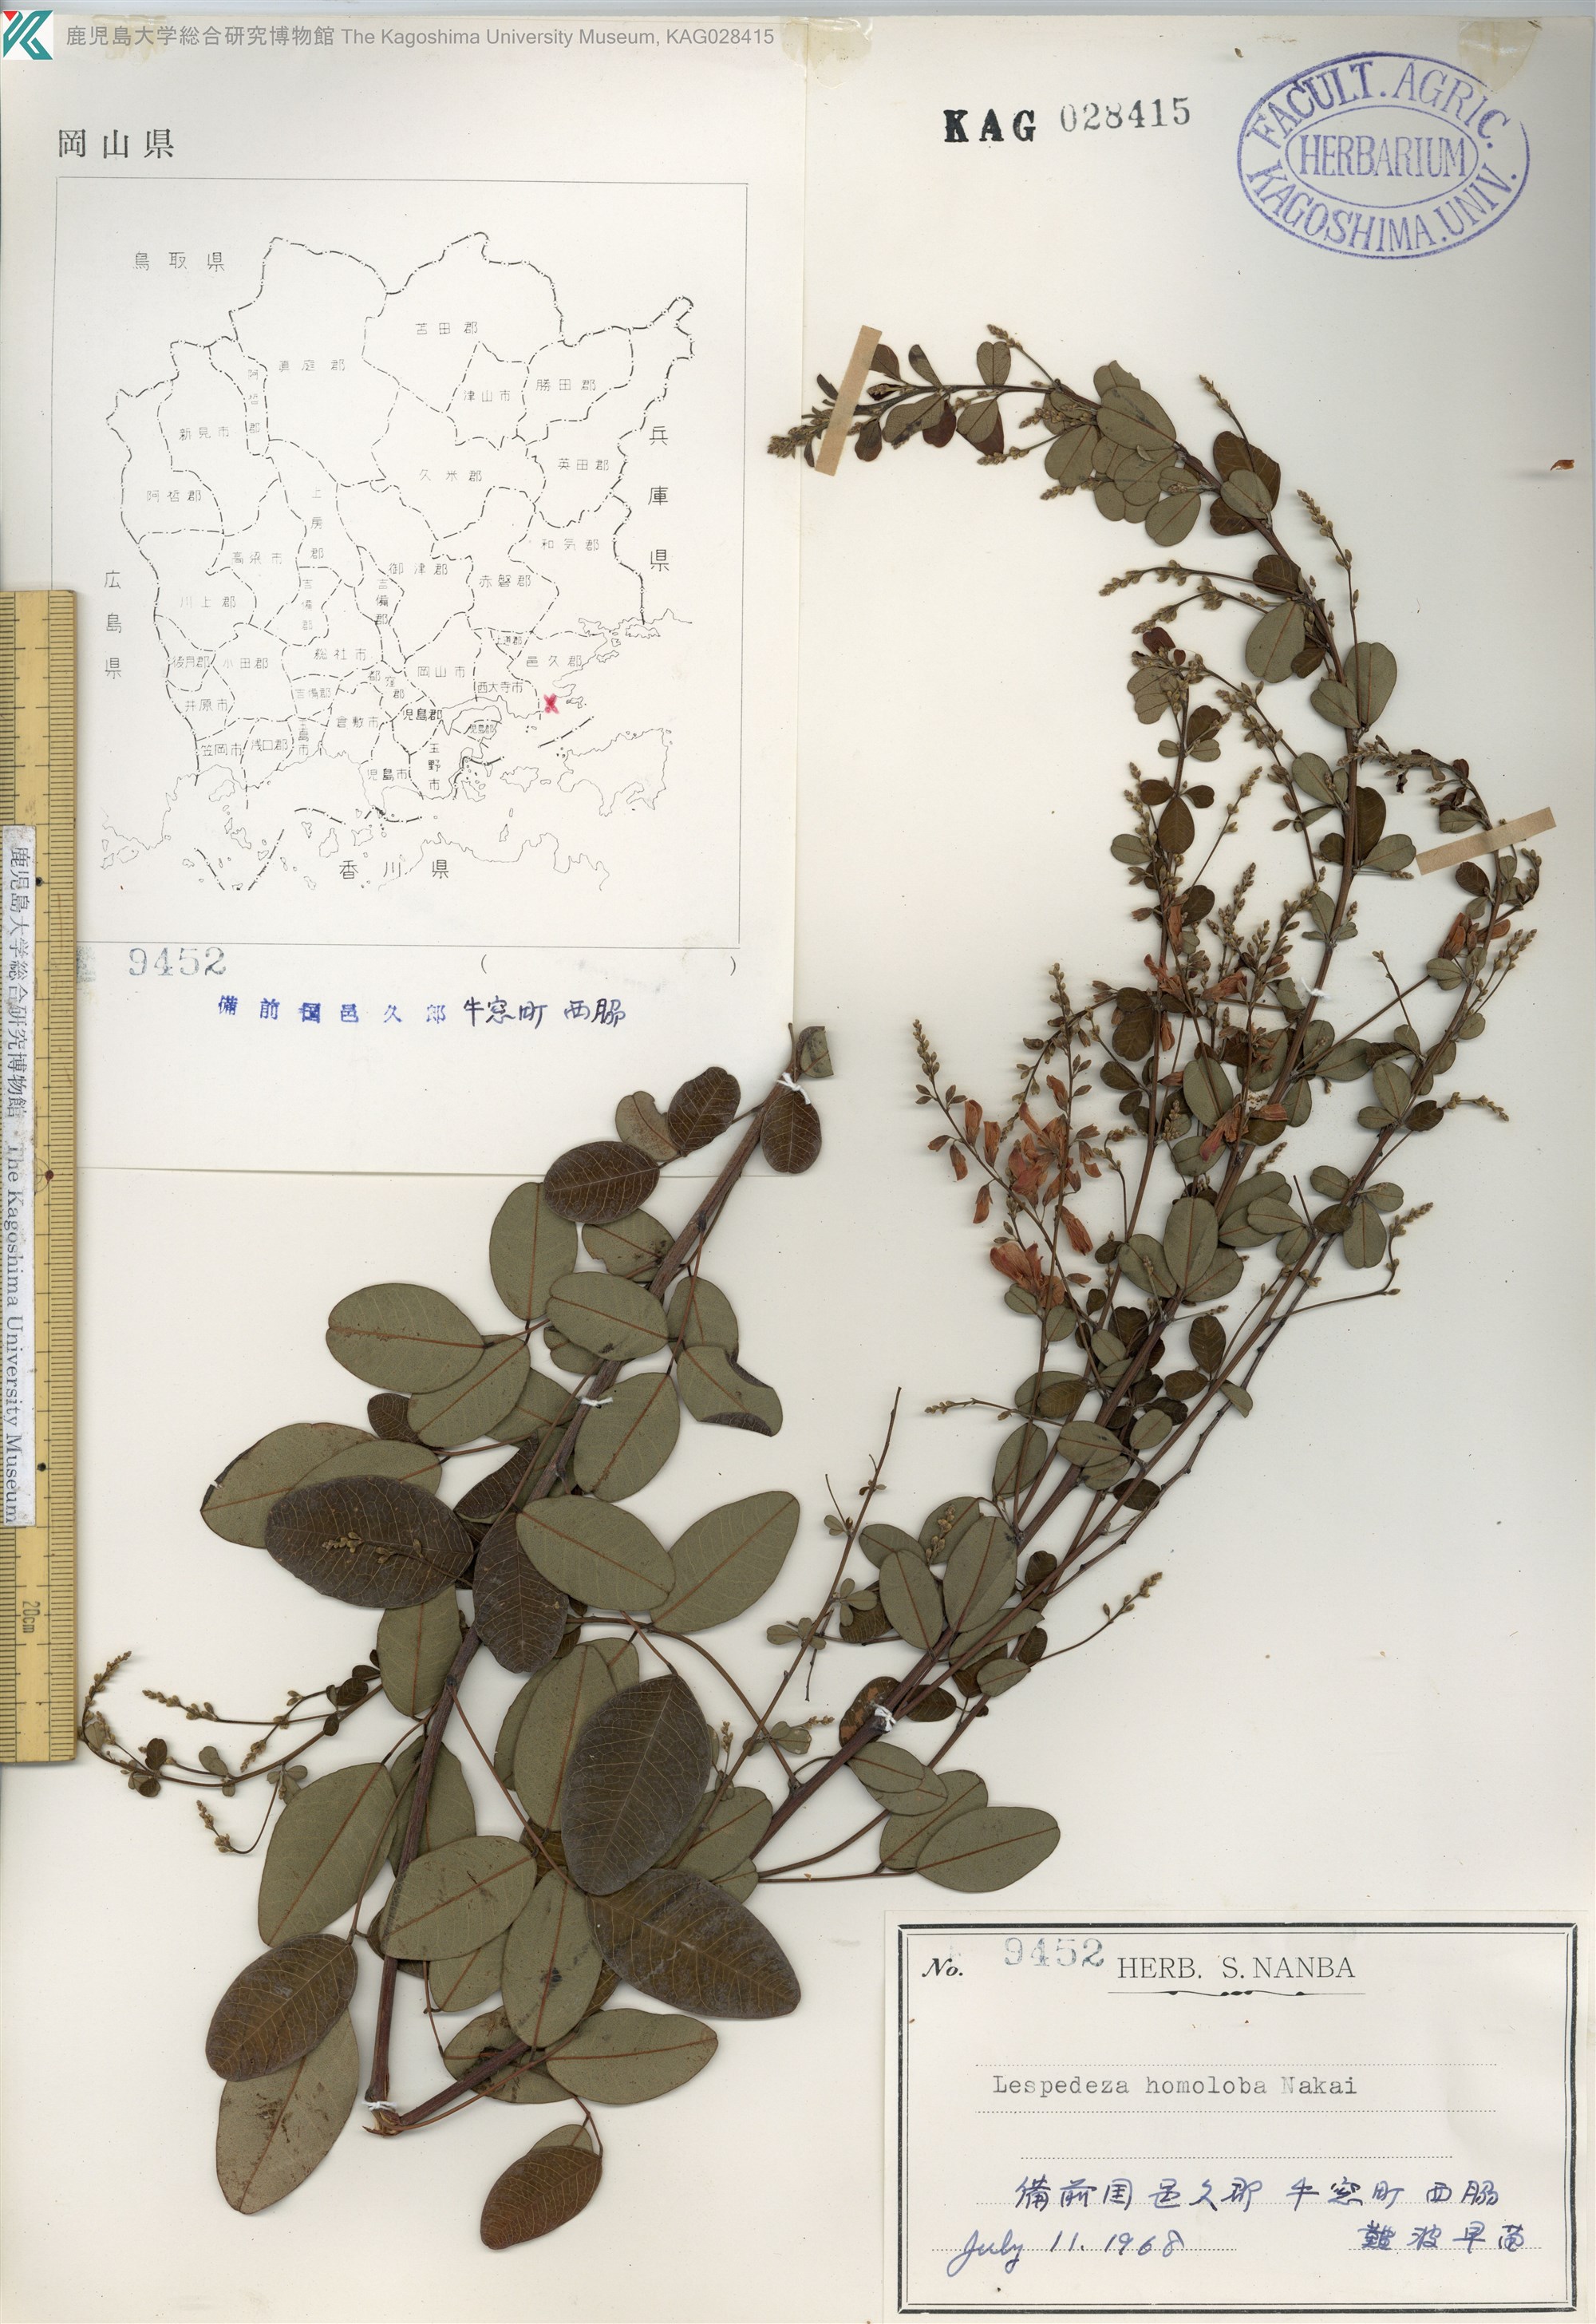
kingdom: Plantae
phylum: Tracheophyta
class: Magnoliopsida
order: Fabales
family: Fabaceae
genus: Lespedeza
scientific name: Lespedeza homoloba
